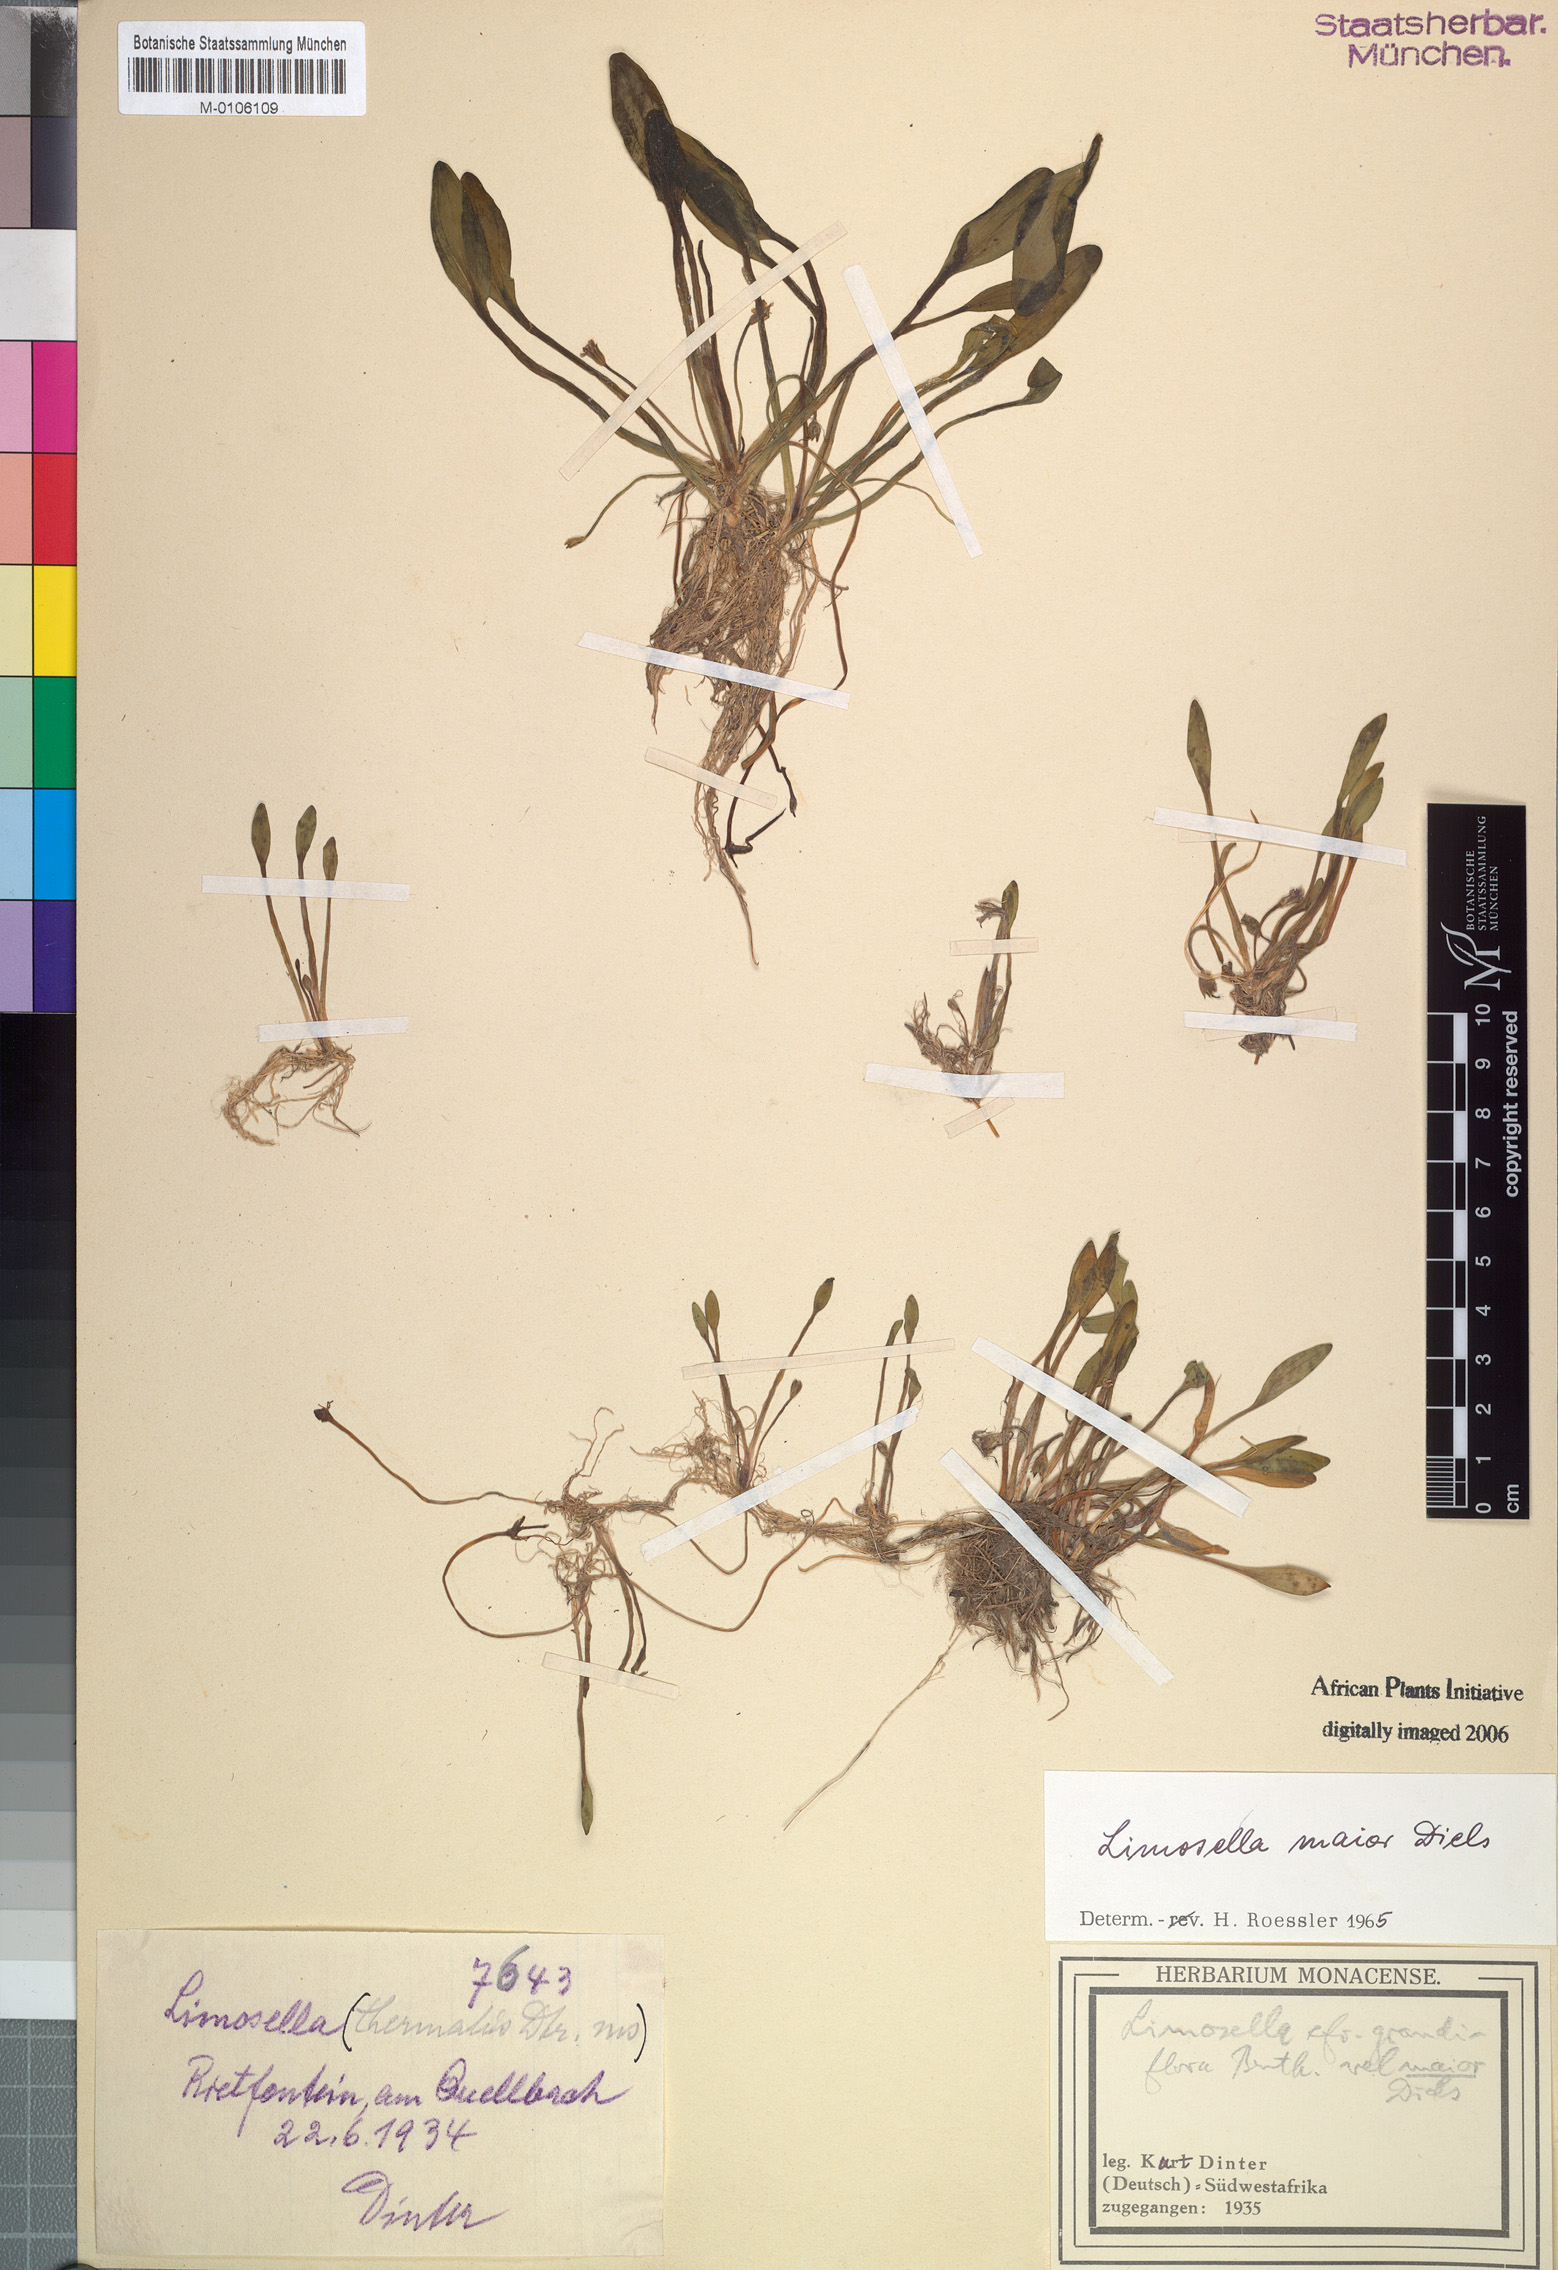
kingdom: Plantae
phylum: Tracheophyta
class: Magnoliopsida
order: Lamiales
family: Scrophulariaceae
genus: Limosella
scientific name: Limosella major
